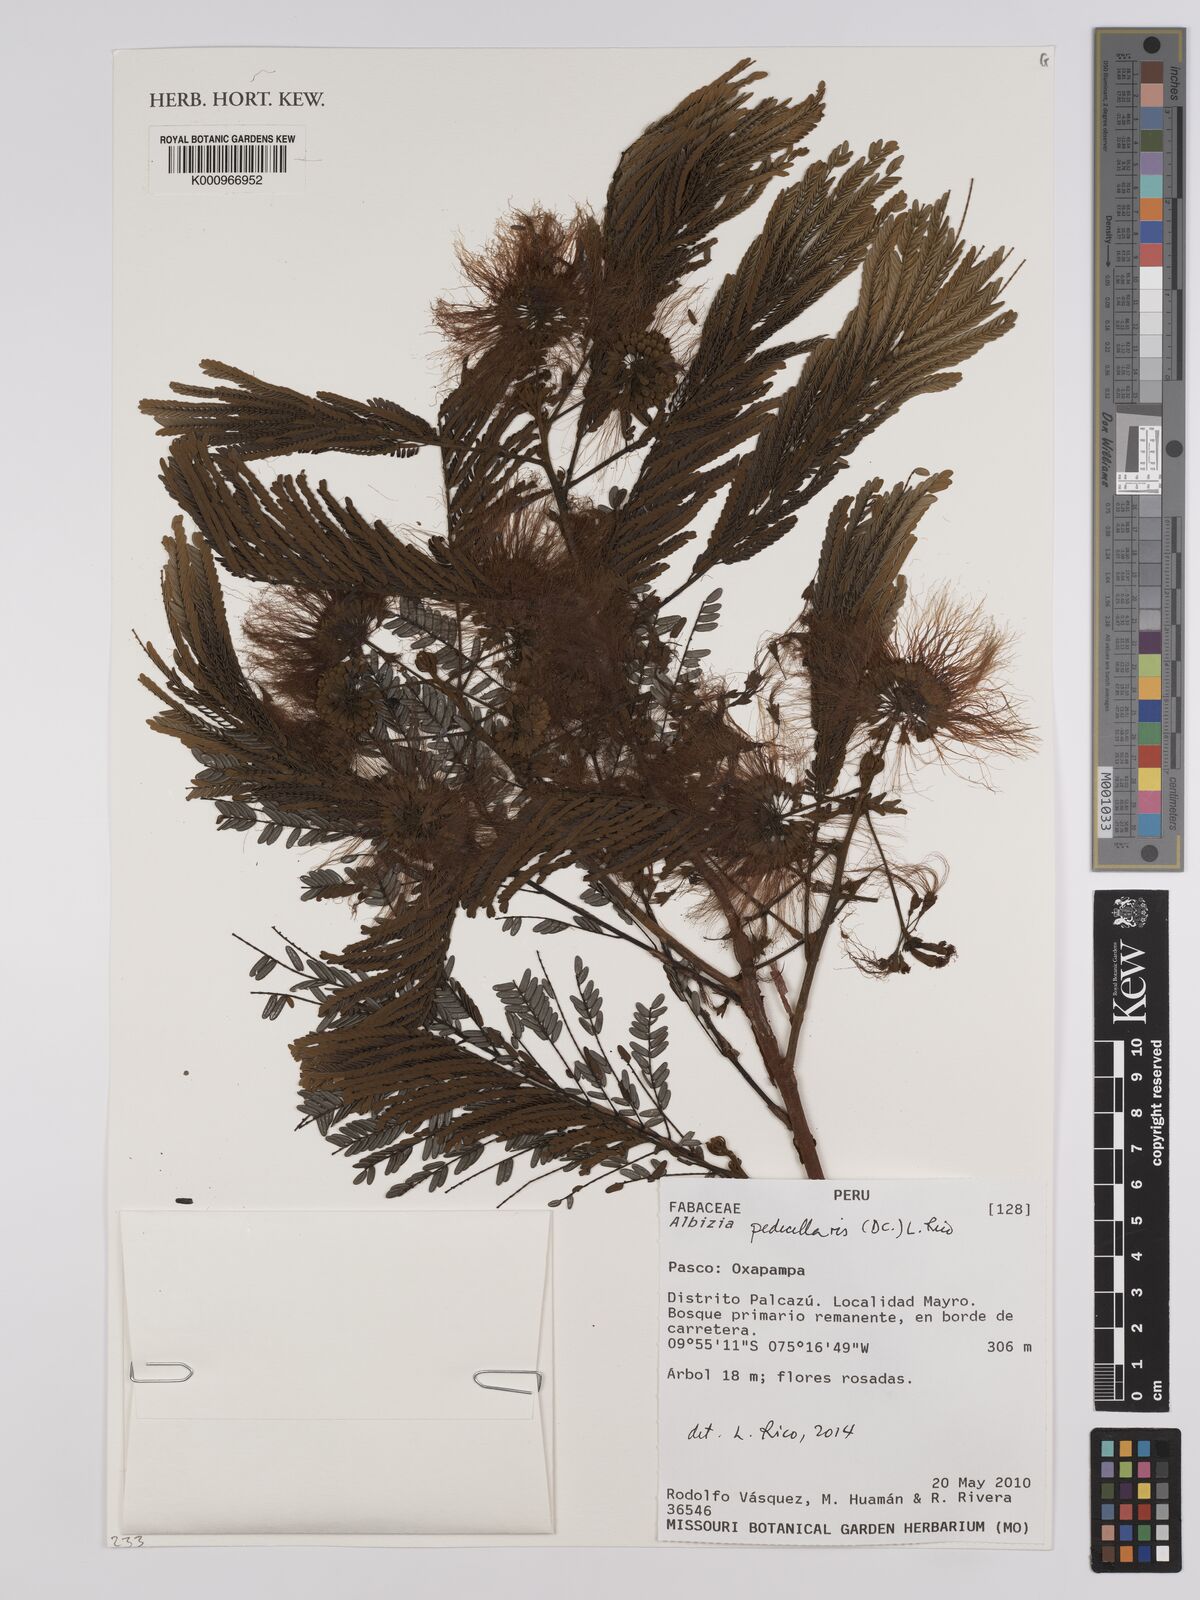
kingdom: Plantae
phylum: Tracheophyta
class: Magnoliopsida
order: Fabales
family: Fabaceae
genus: Balizia
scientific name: Balizia pedicellaris
